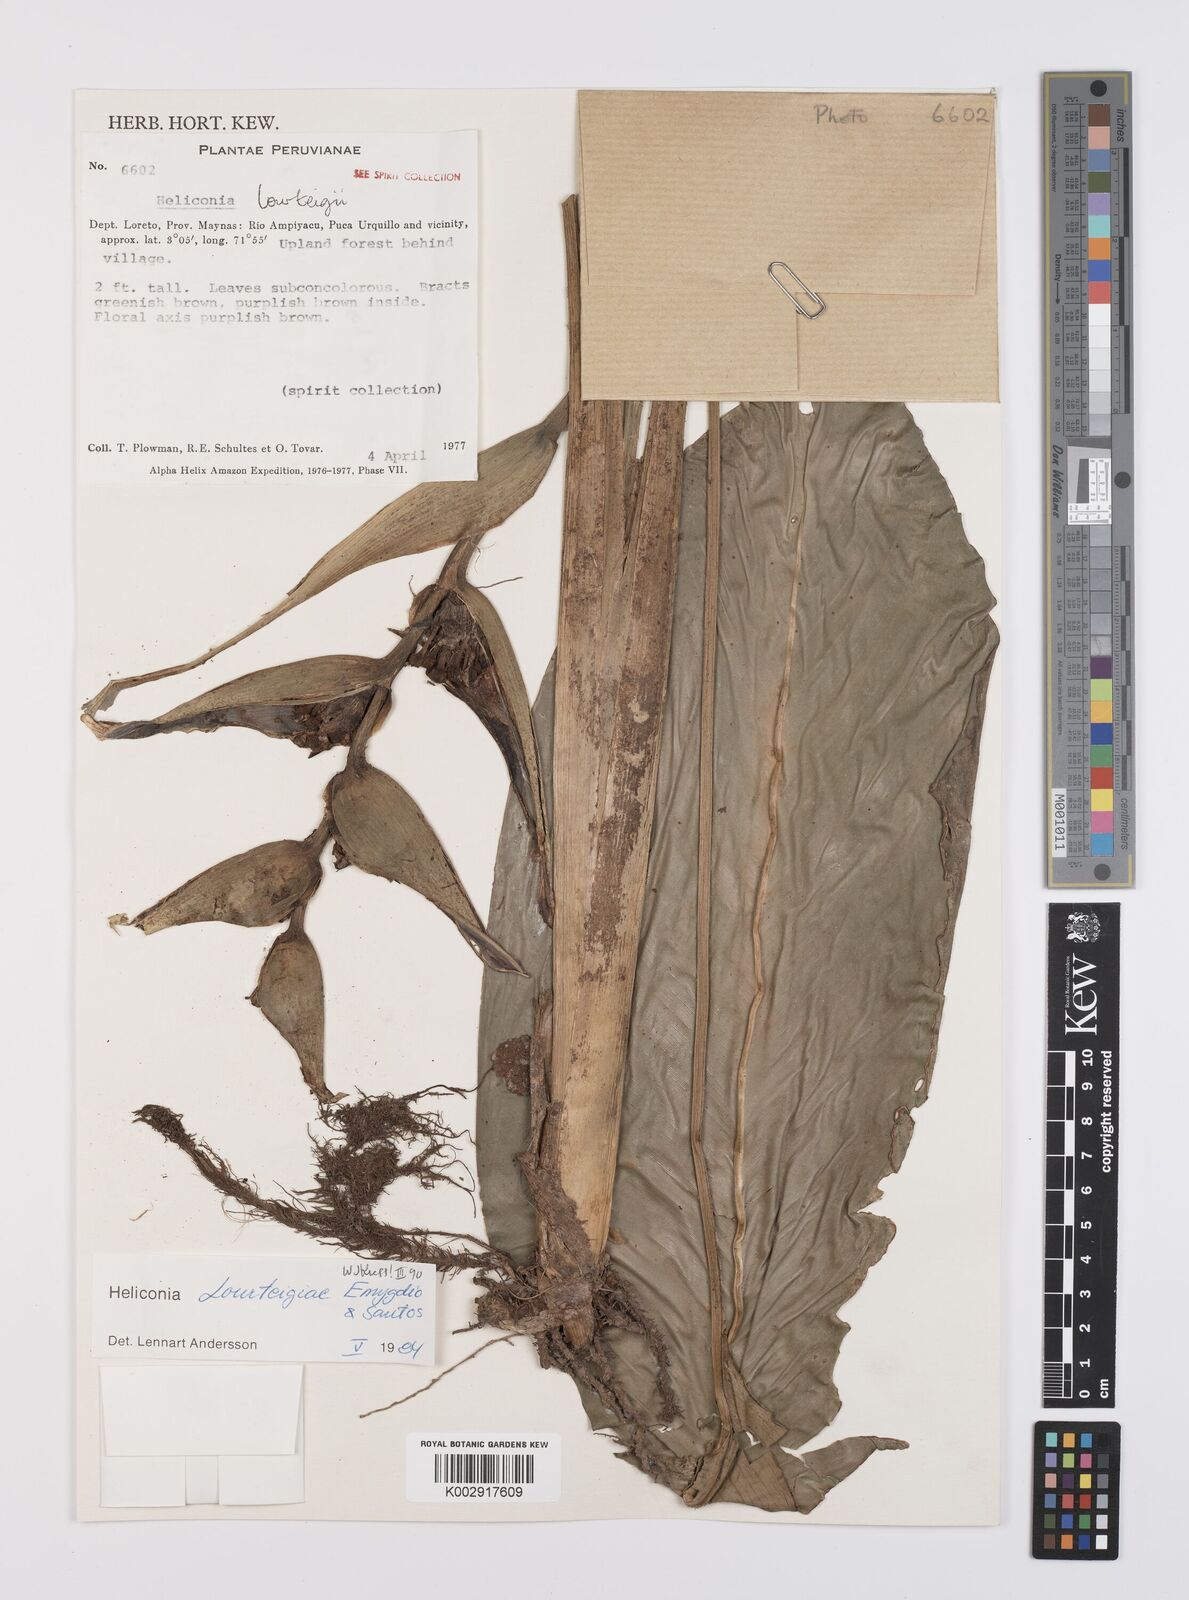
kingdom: Plantae
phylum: Tracheophyta
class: Liliopsida
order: Zingiberales
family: Heliconiaceae
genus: Heliconia
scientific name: Heliconia lourteigiae
